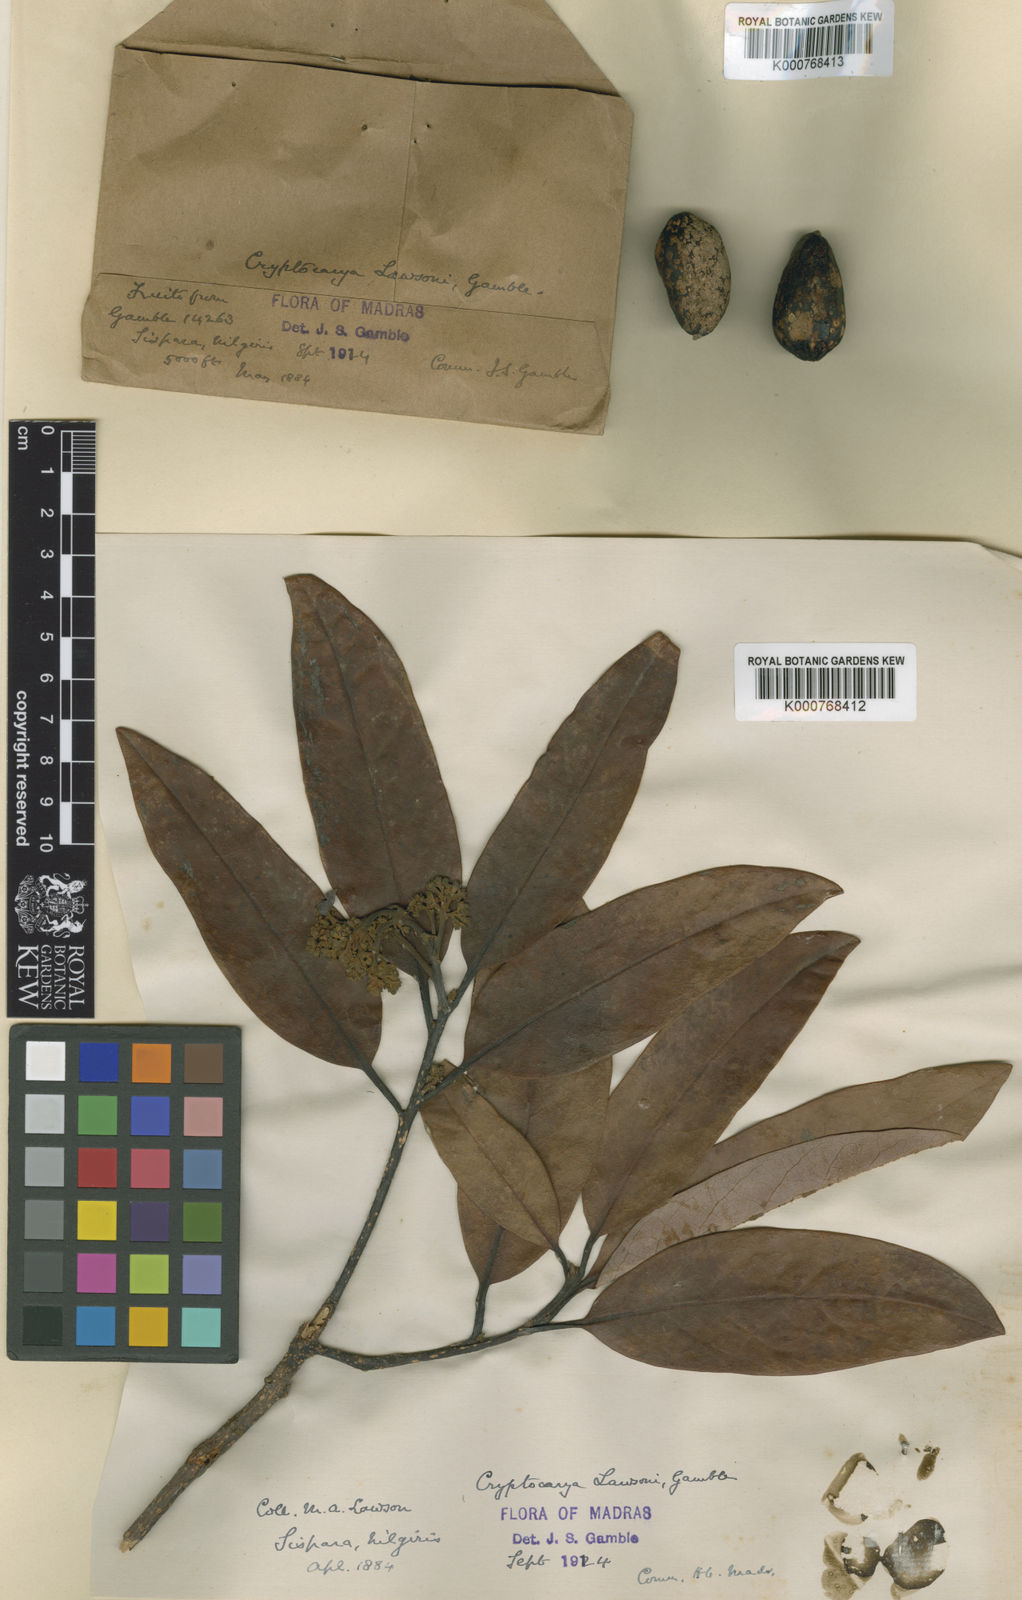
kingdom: Plantae
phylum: Tracheophyta
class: Magnoliopsida
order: Laurales
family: Lauraceae
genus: Cryptocarya
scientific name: Cryptocarya lawsonii
